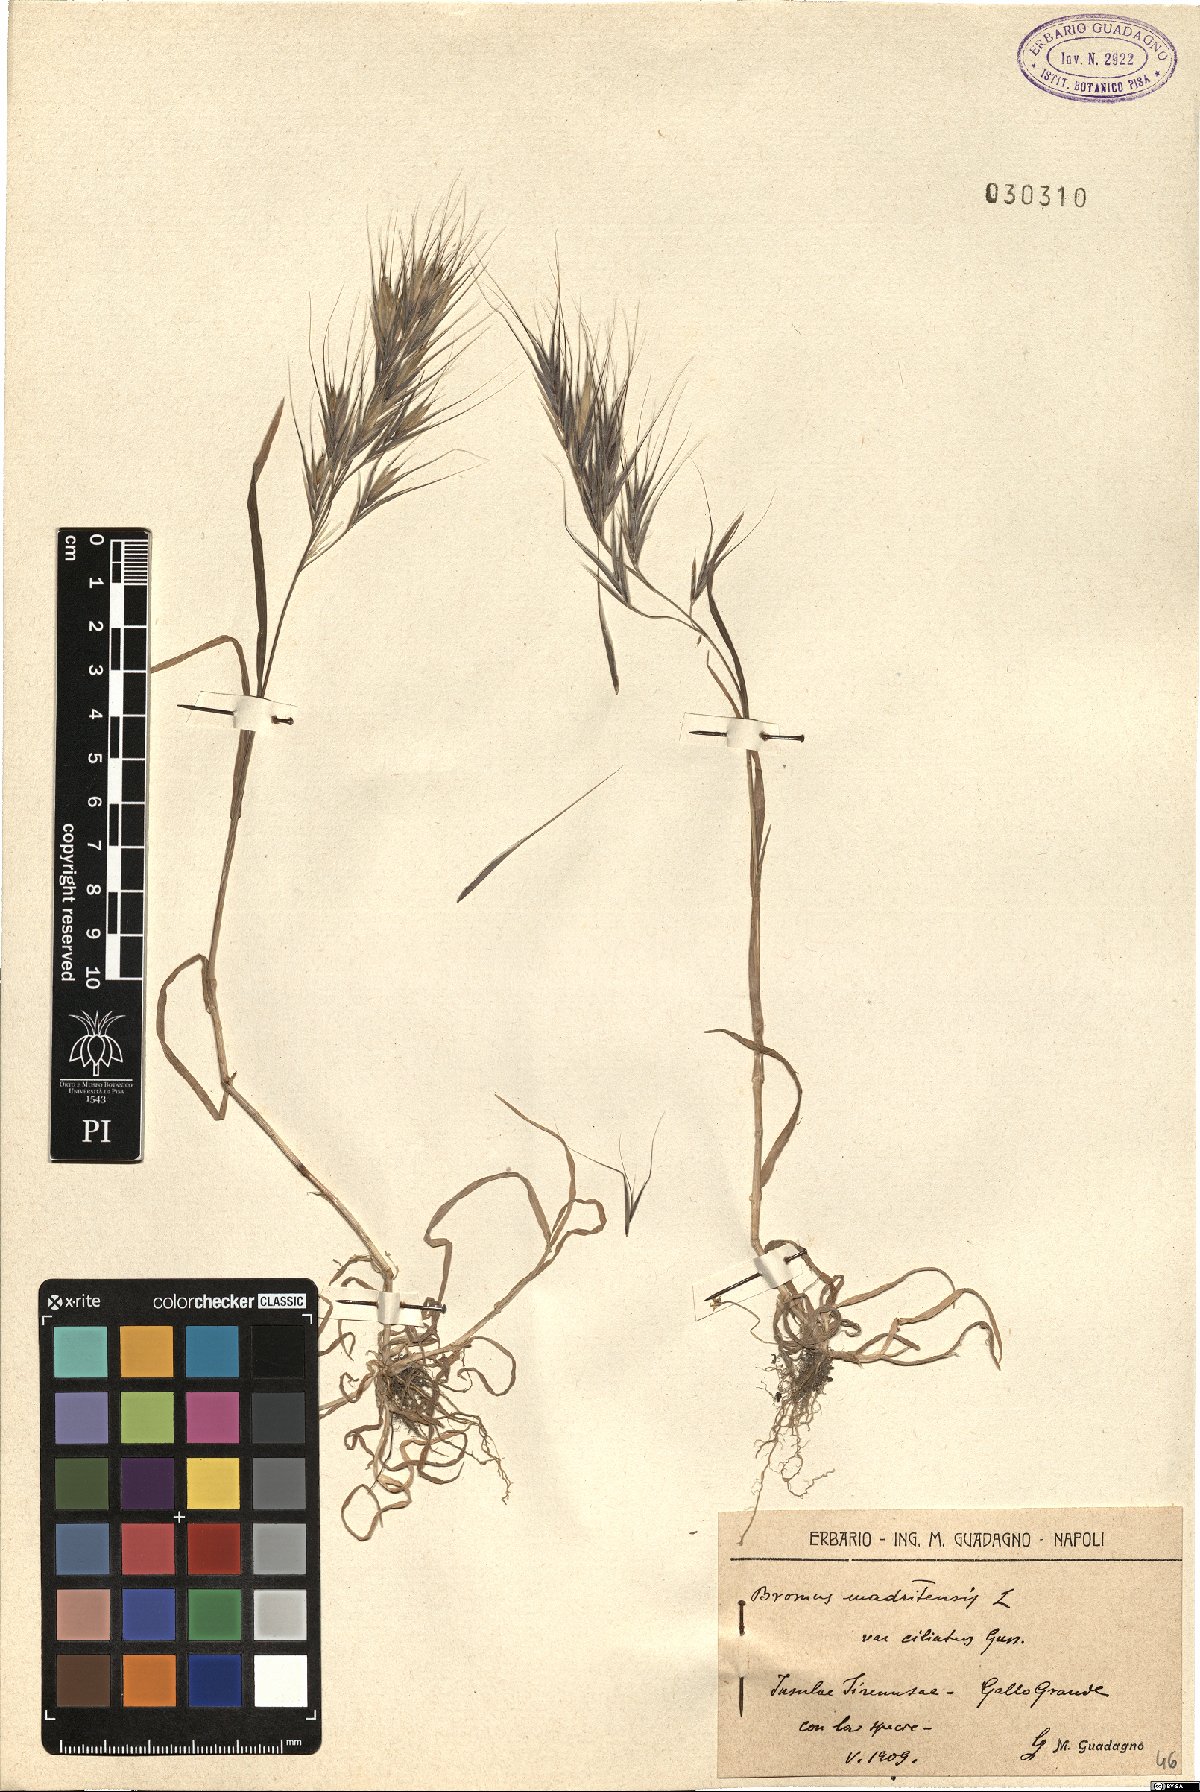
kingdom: Plantae
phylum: Tracheophyta
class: Liliopsida
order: Poales
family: Poaceae
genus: Bromus
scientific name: Bromus madritensis
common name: Compact brome
